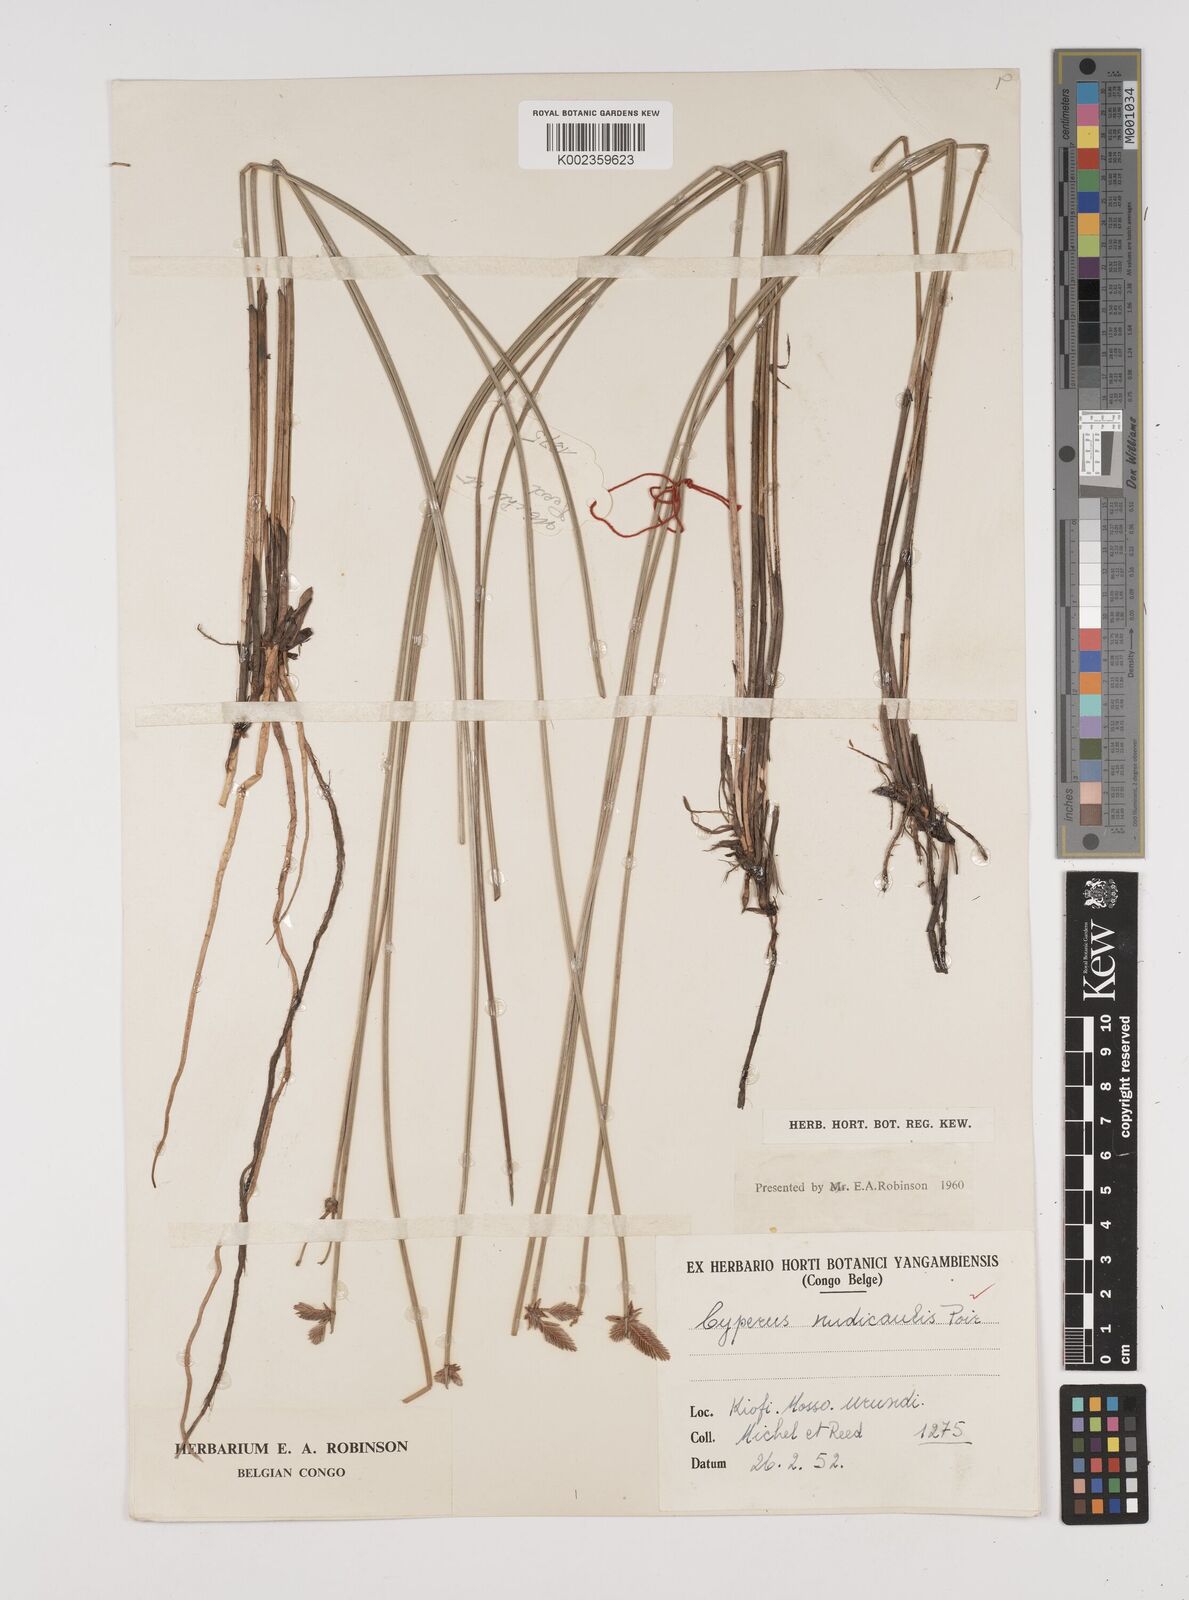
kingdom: Plantae
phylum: Tracheophyta
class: Liliopsida
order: Poales
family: Cyperaceae
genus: Cyperus
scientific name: Cyperus pectinatus
